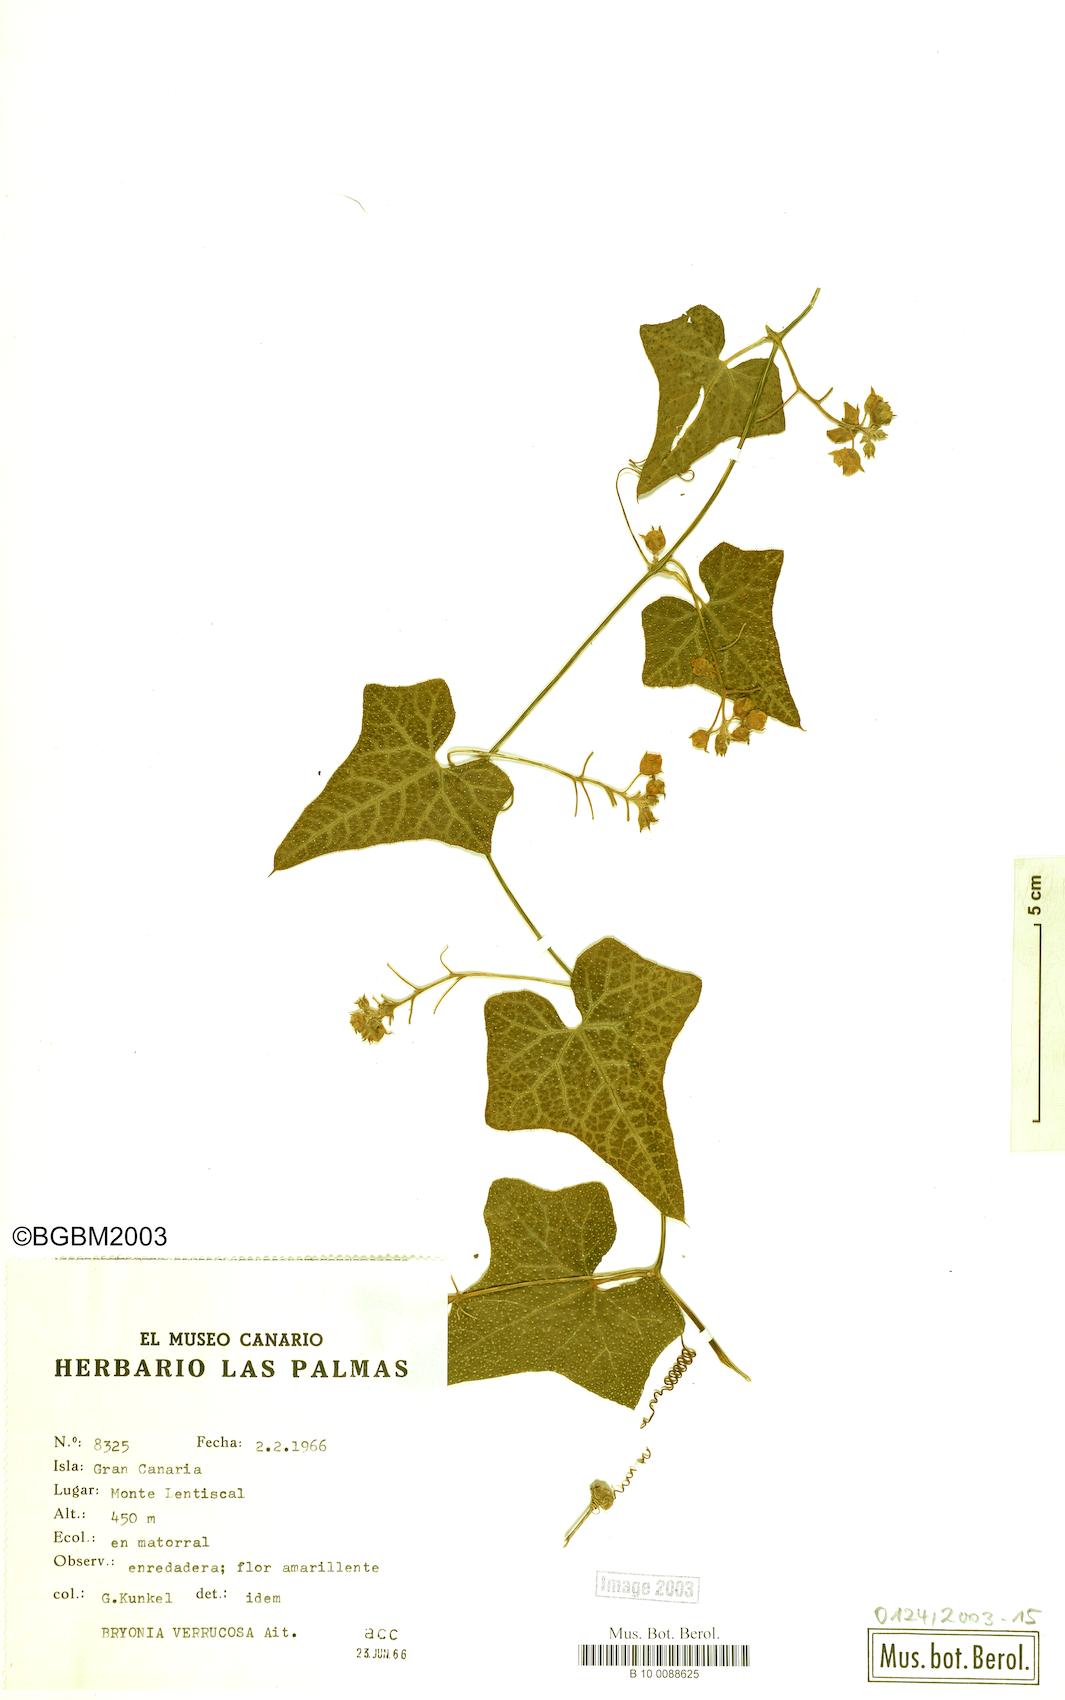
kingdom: Plantae
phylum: Tracheophyta
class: Magnoliopsida
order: Cucurbitales
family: Cucurbitaceae
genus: Bryonia
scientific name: Bryonia verrucosa
